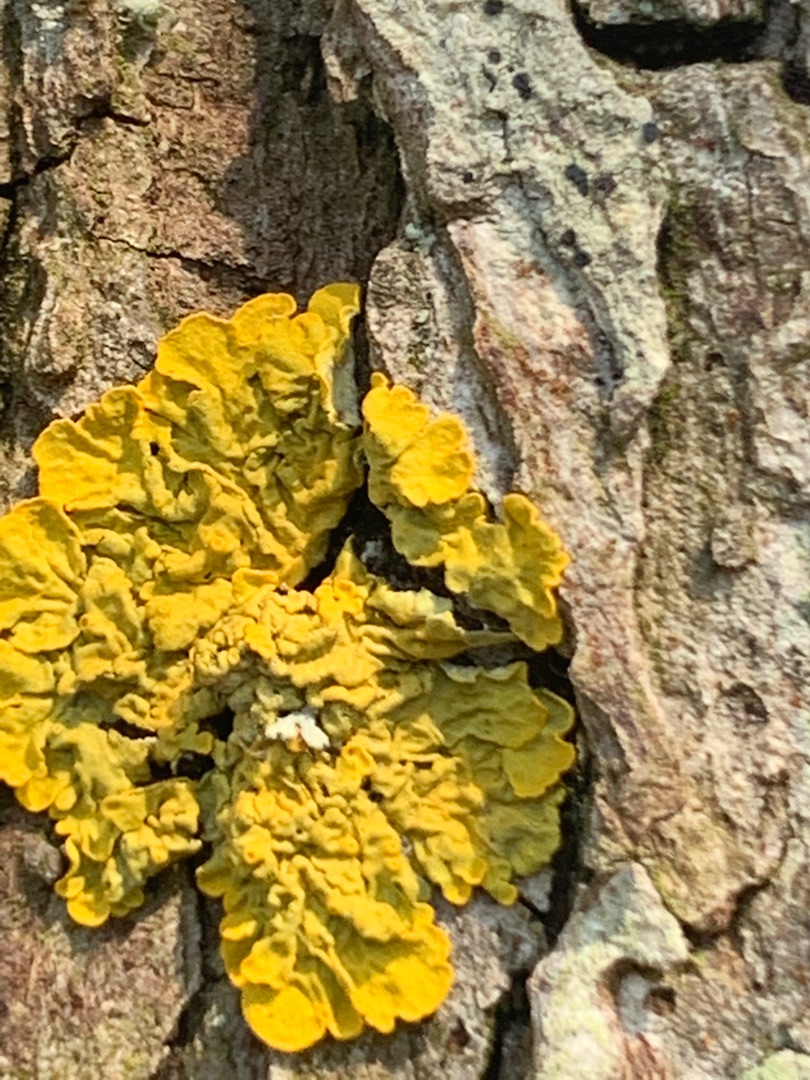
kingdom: Fungi
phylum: Ascomycota
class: Lecanoromycetes
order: Caliciales
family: Physciaceae
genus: Physcia
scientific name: Physcia adscendens
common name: Hætte-rosetlav
